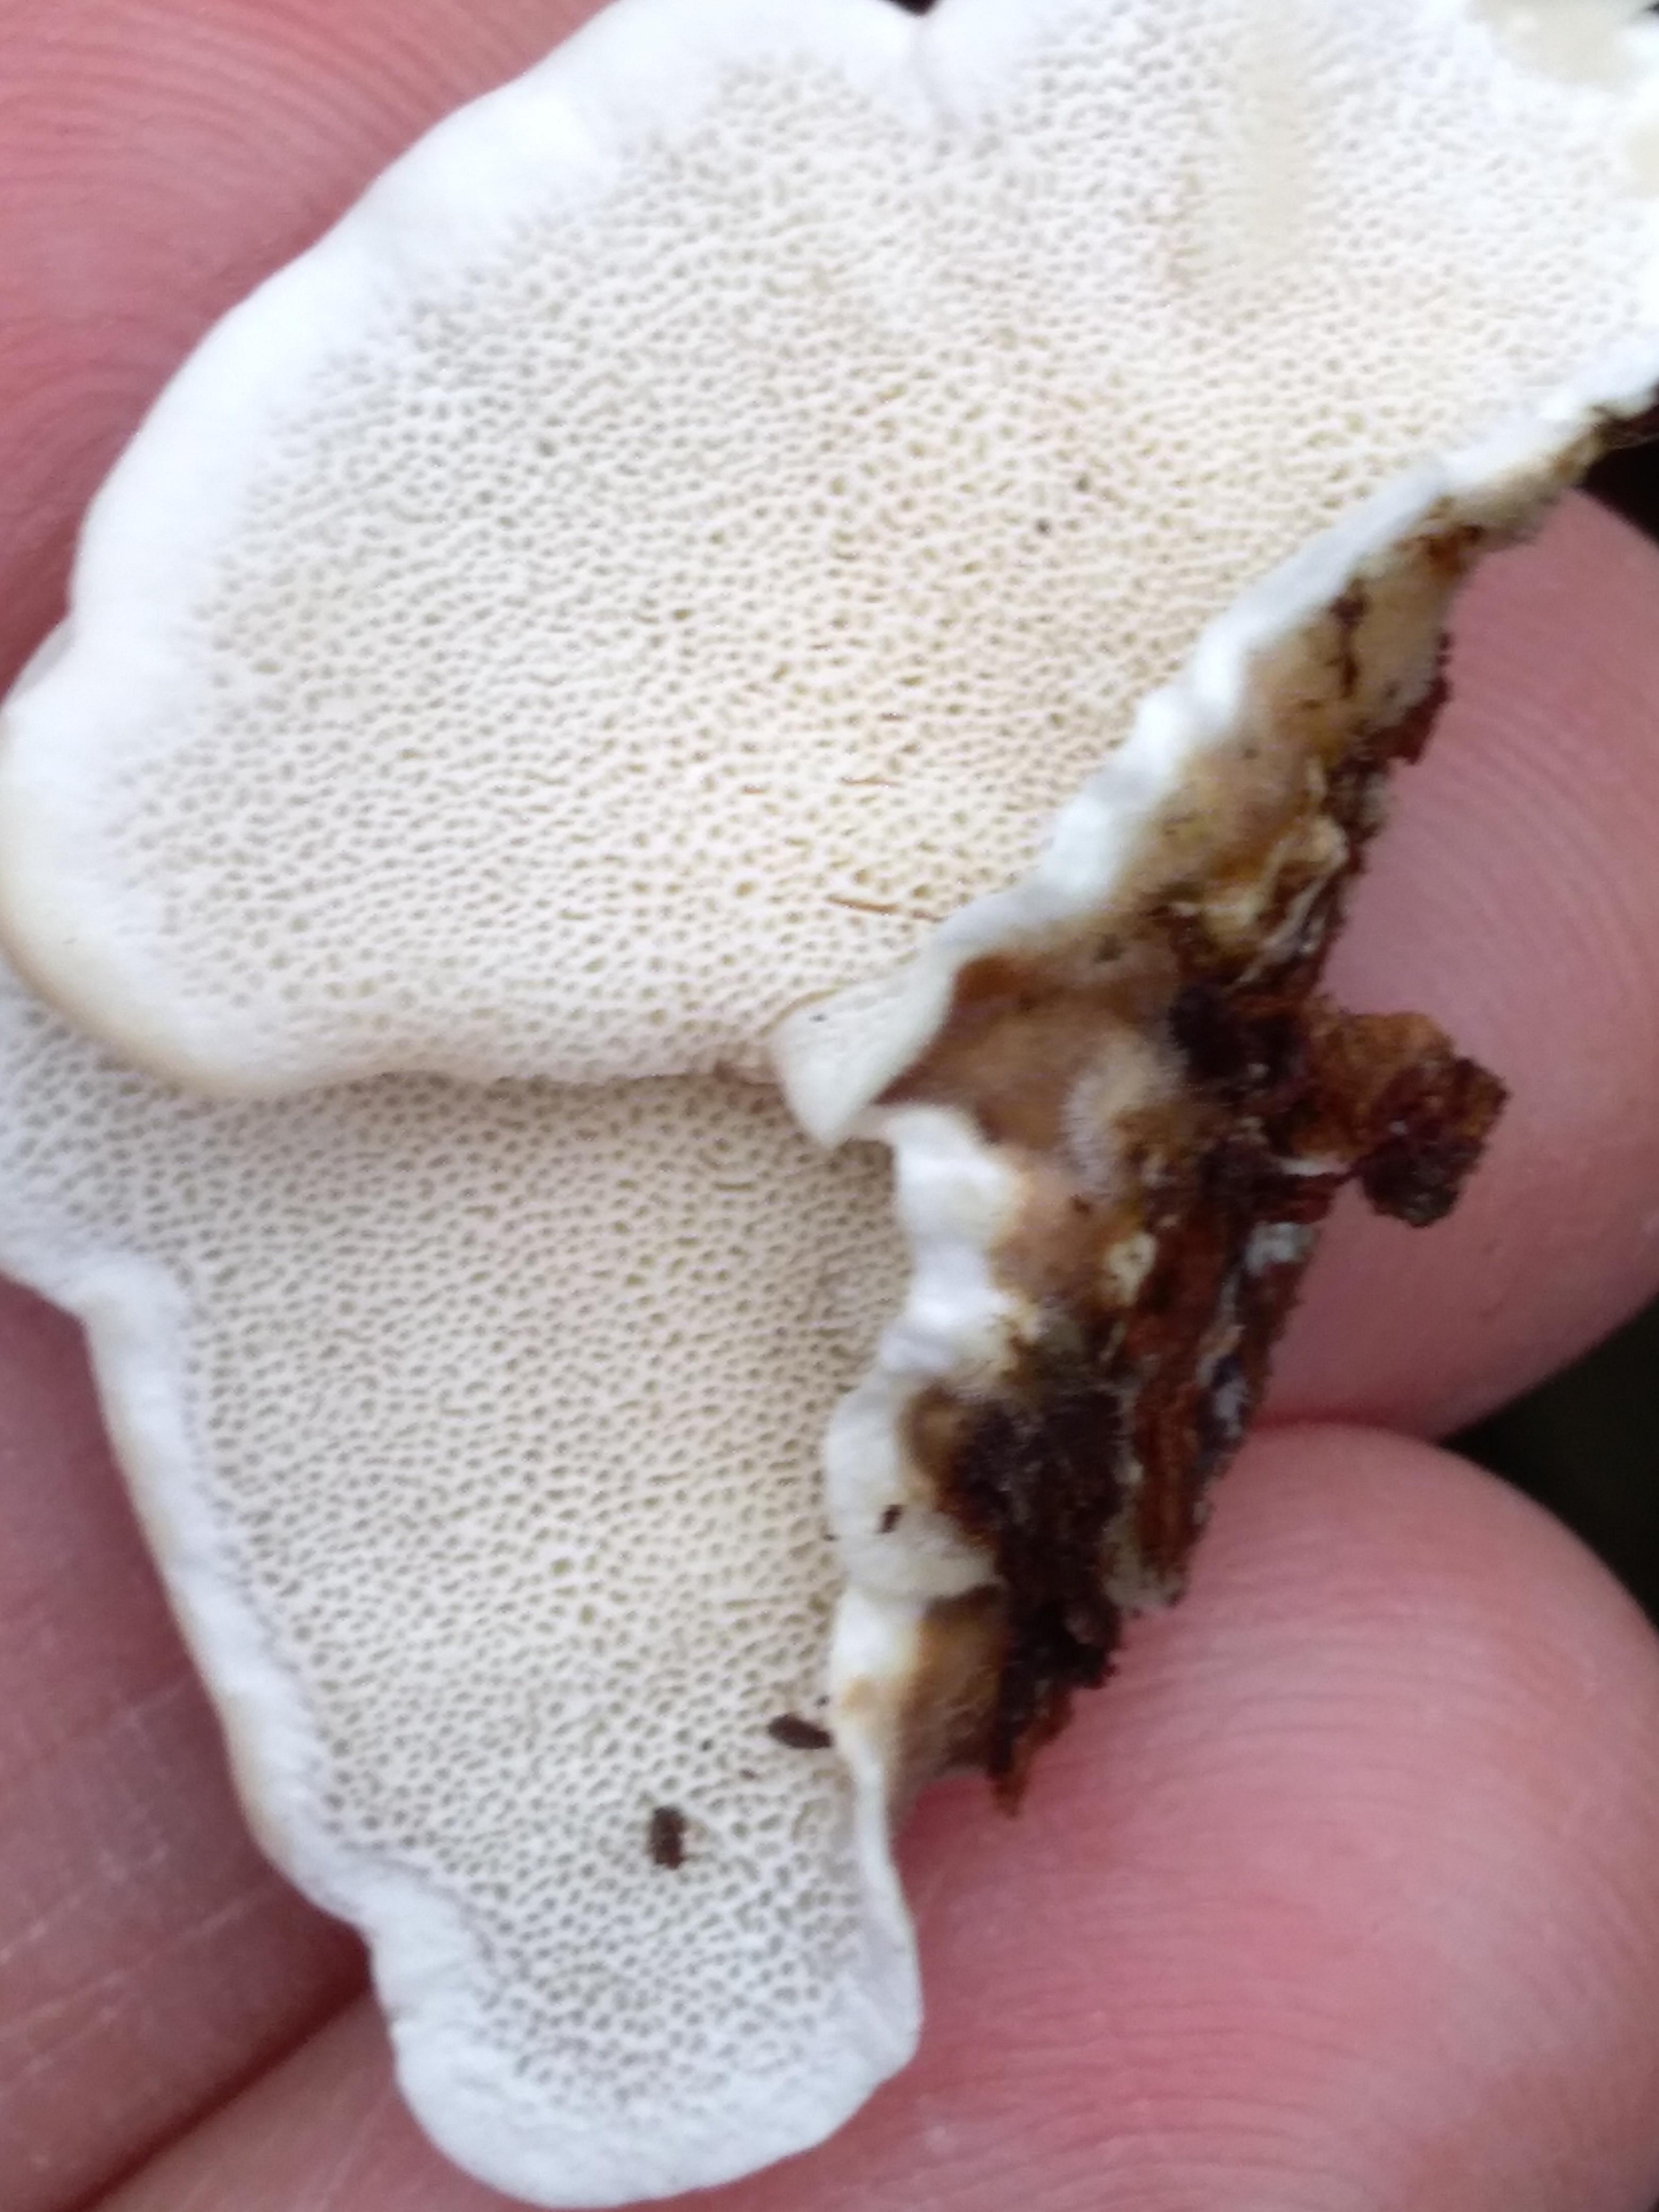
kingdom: Fungi
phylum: Basidiomycota
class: Agaricomycetes
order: Polyporales
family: Polyporaceae
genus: Trametes
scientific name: Trametes versicolor
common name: broget læderporesvamp
